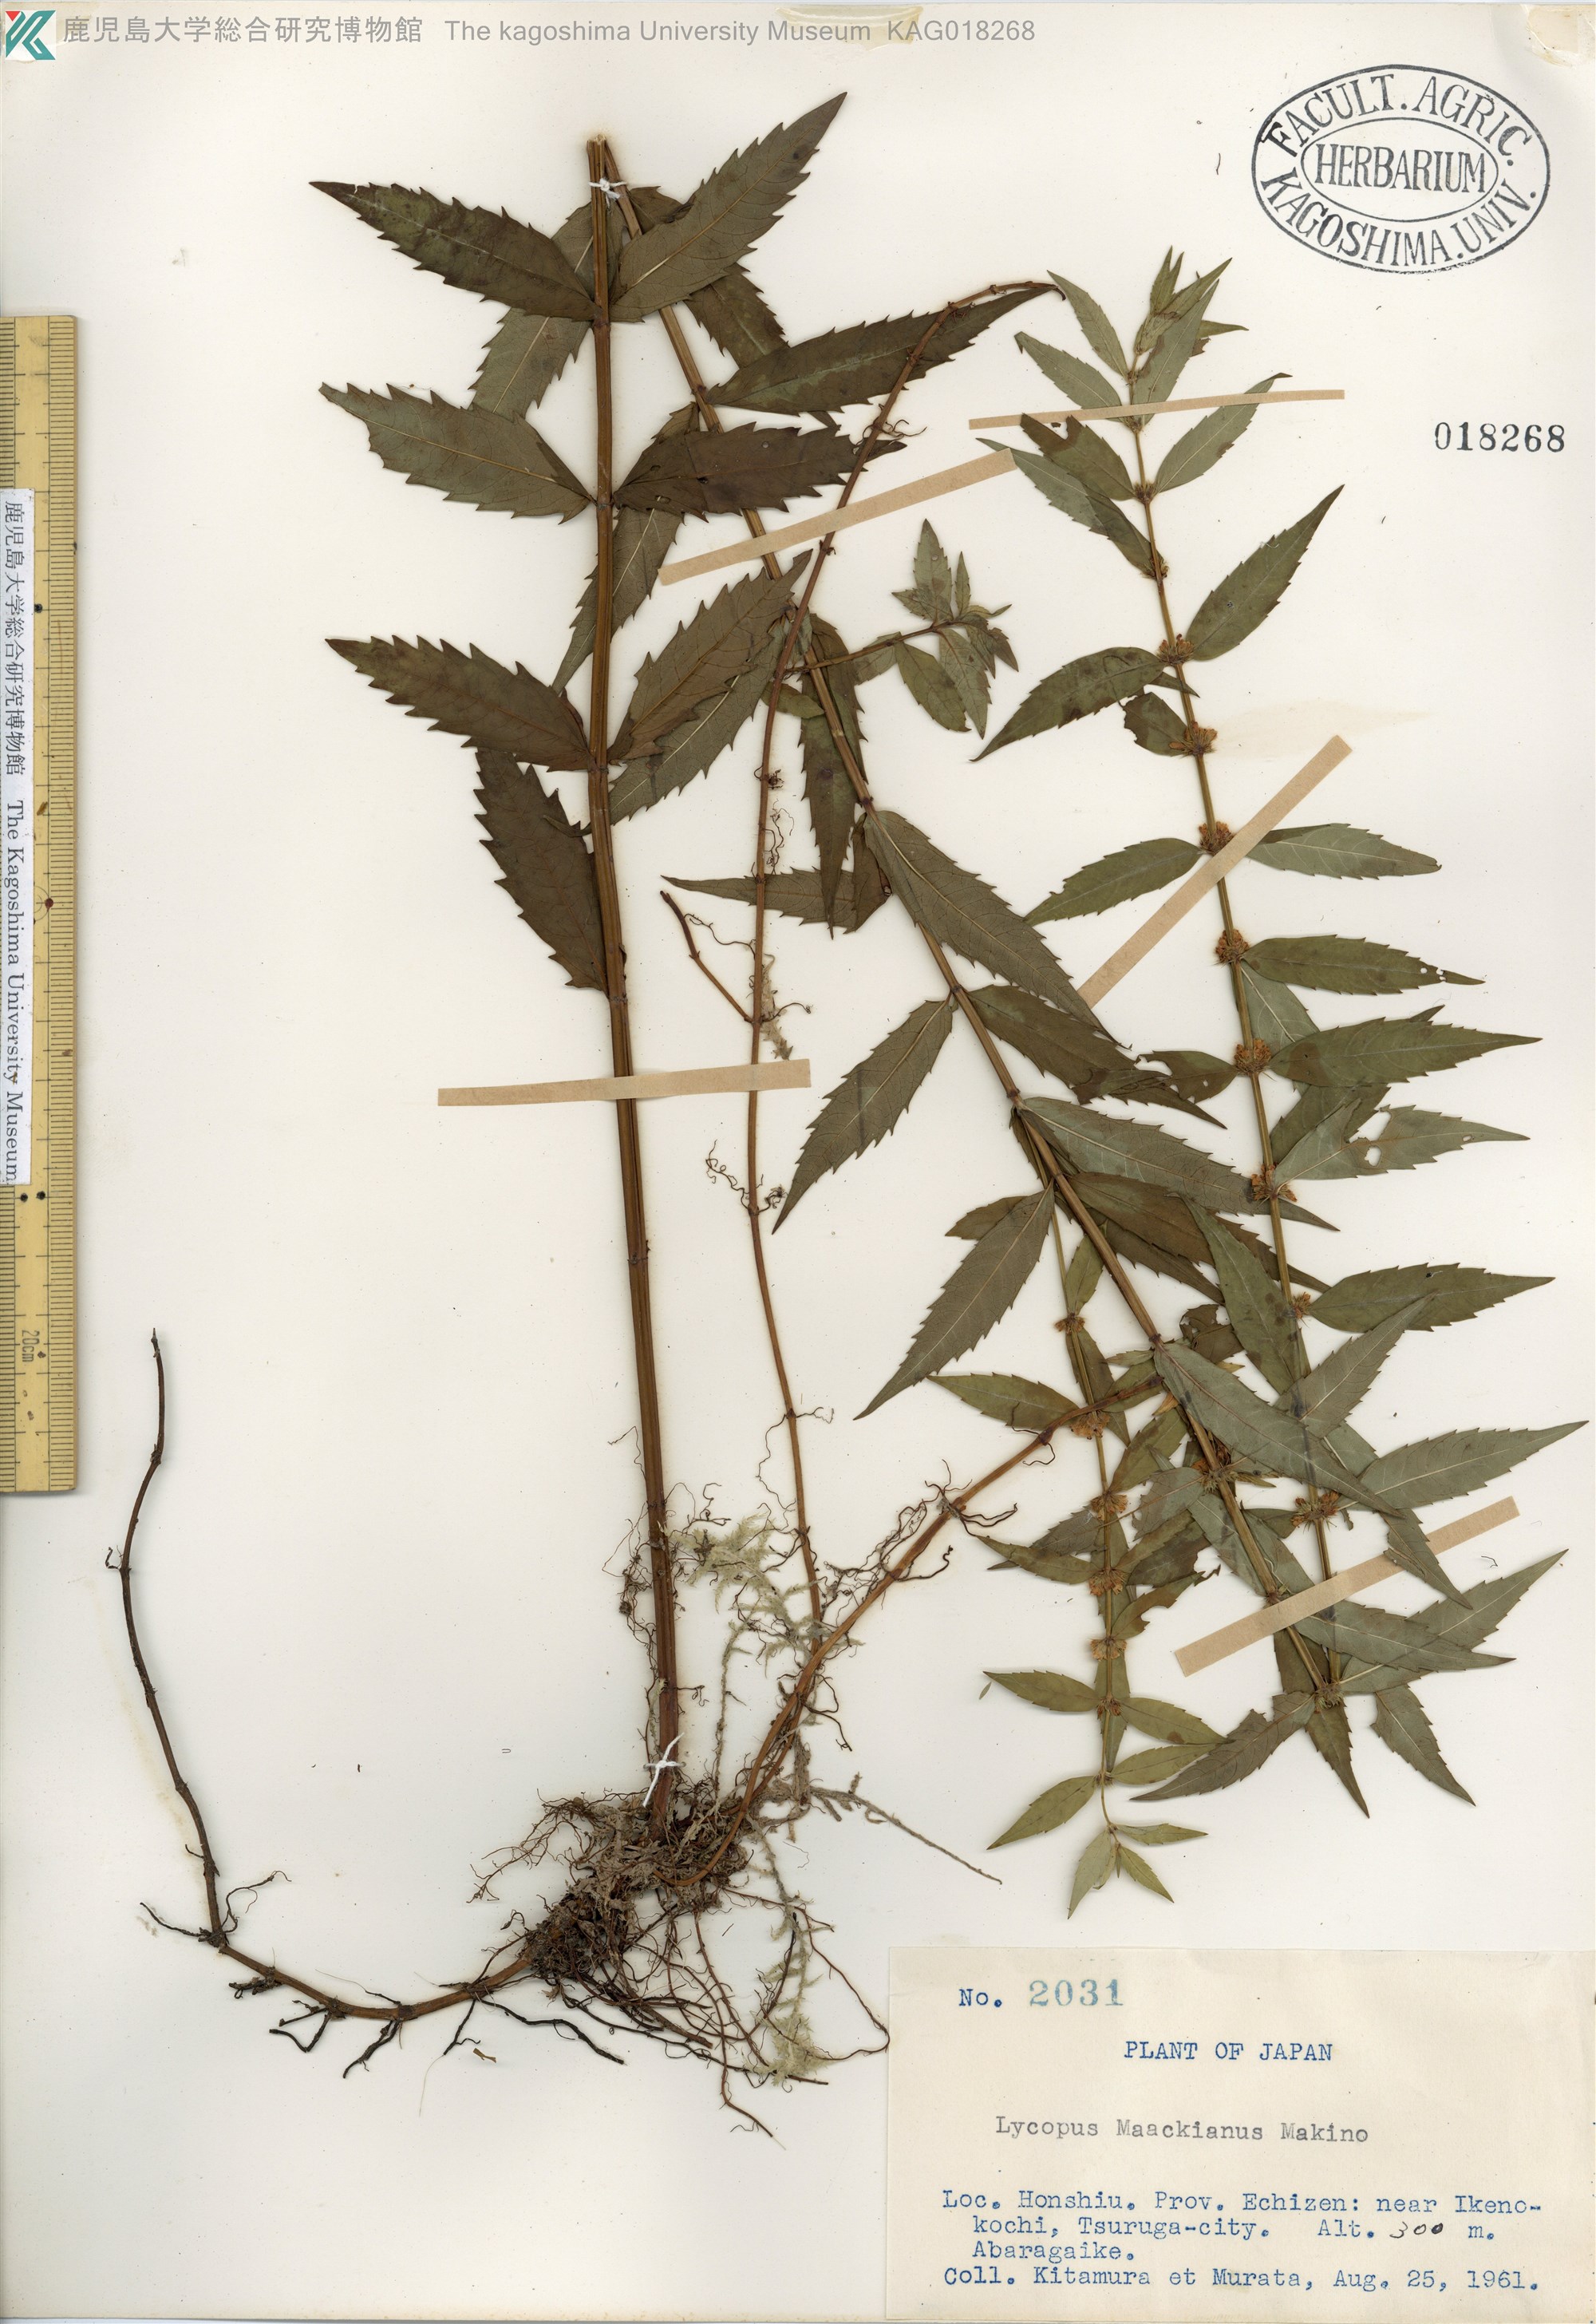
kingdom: Plantae
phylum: Tracheophyta
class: Magnoliopsida
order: Lamiales
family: Lamiaceae
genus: Lycopus
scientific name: Lycopus lucidus
